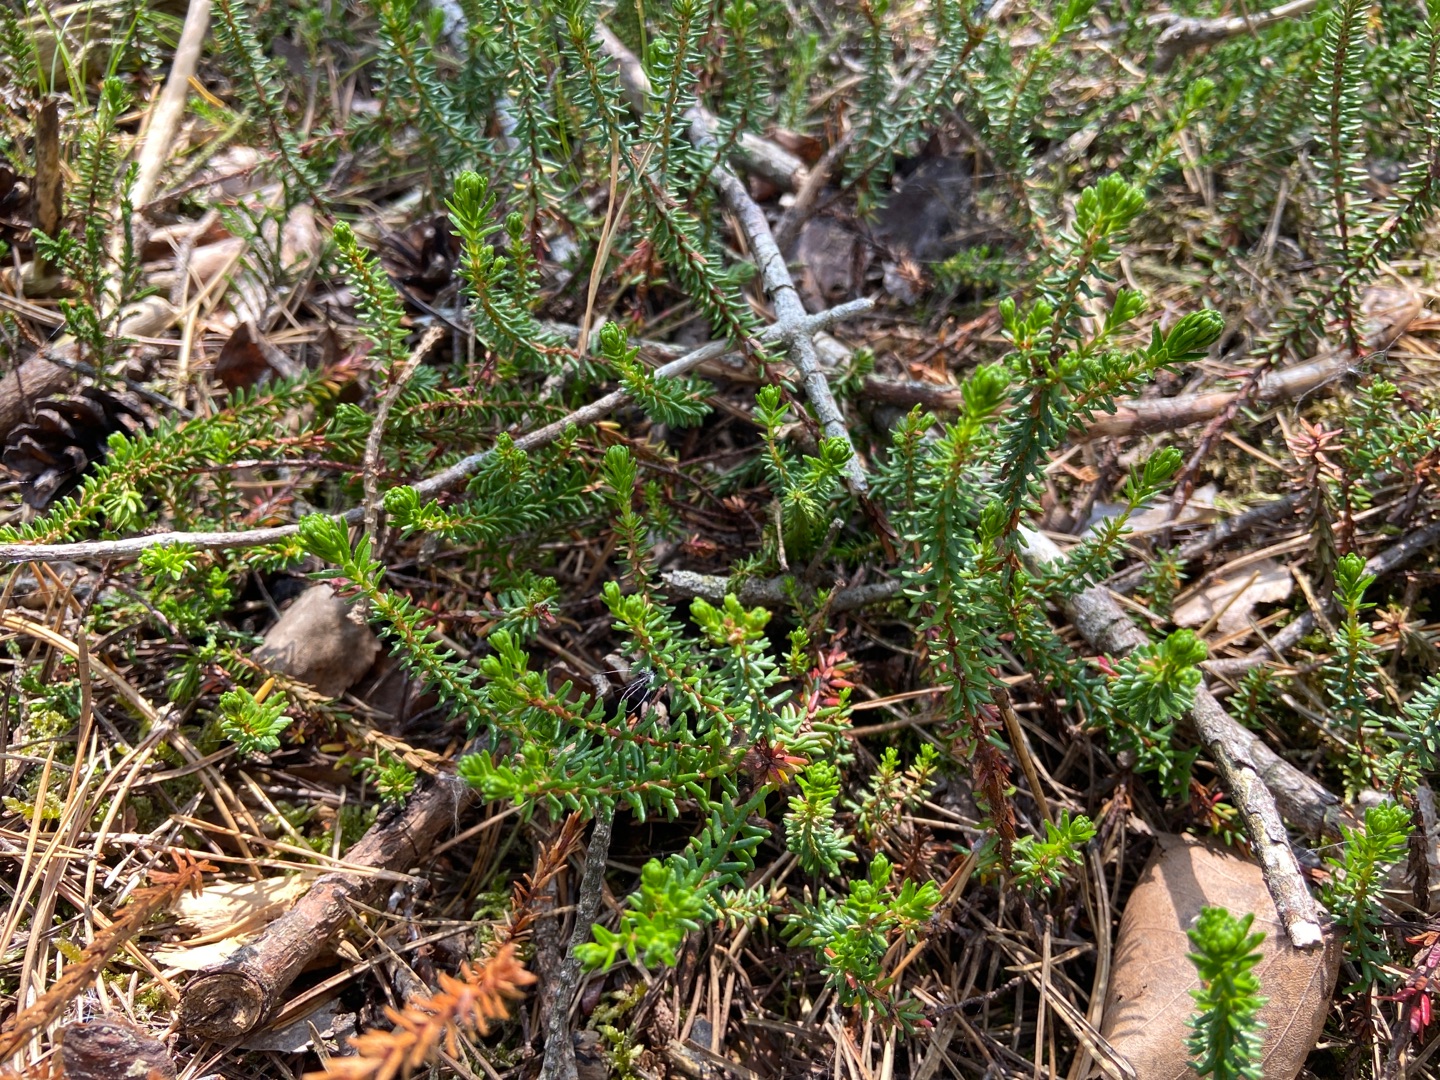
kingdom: Plantae
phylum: Tracheophyta
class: Magnoliopsida
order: Ericales
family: Ericaceae
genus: Empetrum
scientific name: Empetrum nigrum
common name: Revling
